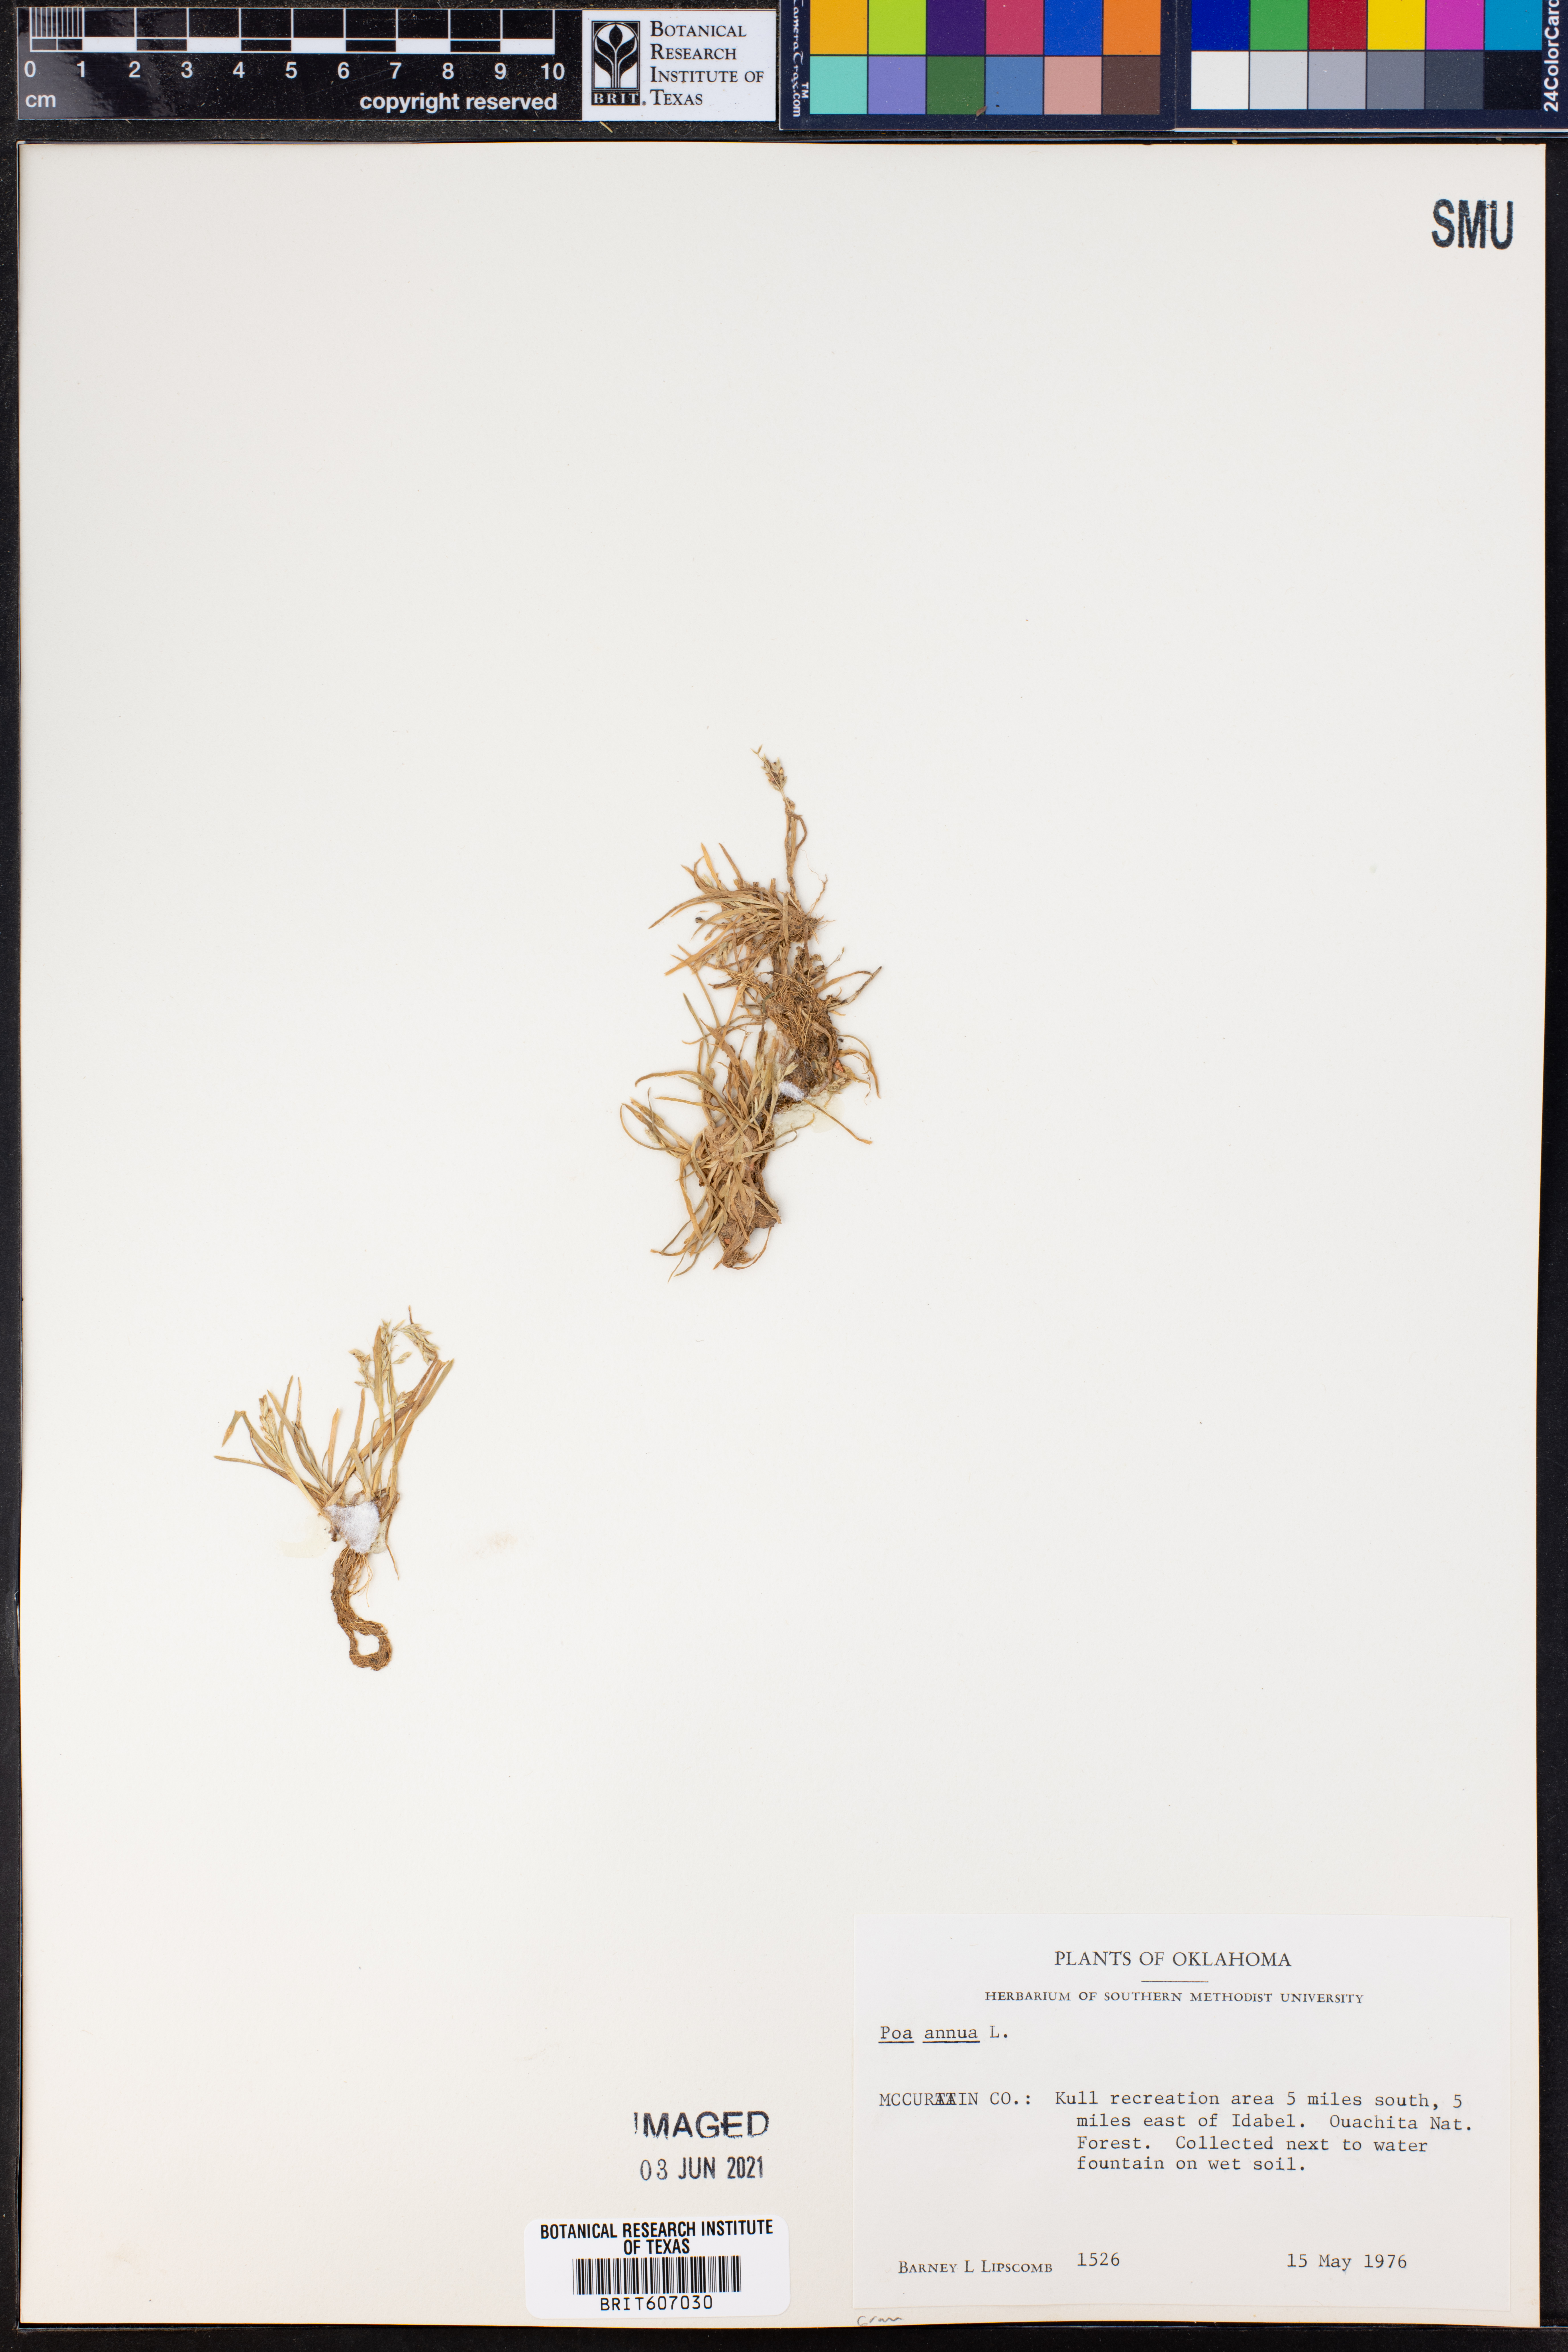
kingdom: Plantae
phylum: Tracheophyta
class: Liliopsida
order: Poales
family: Poaceae
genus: Poa
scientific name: Poa annua
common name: Annual bluegrass
